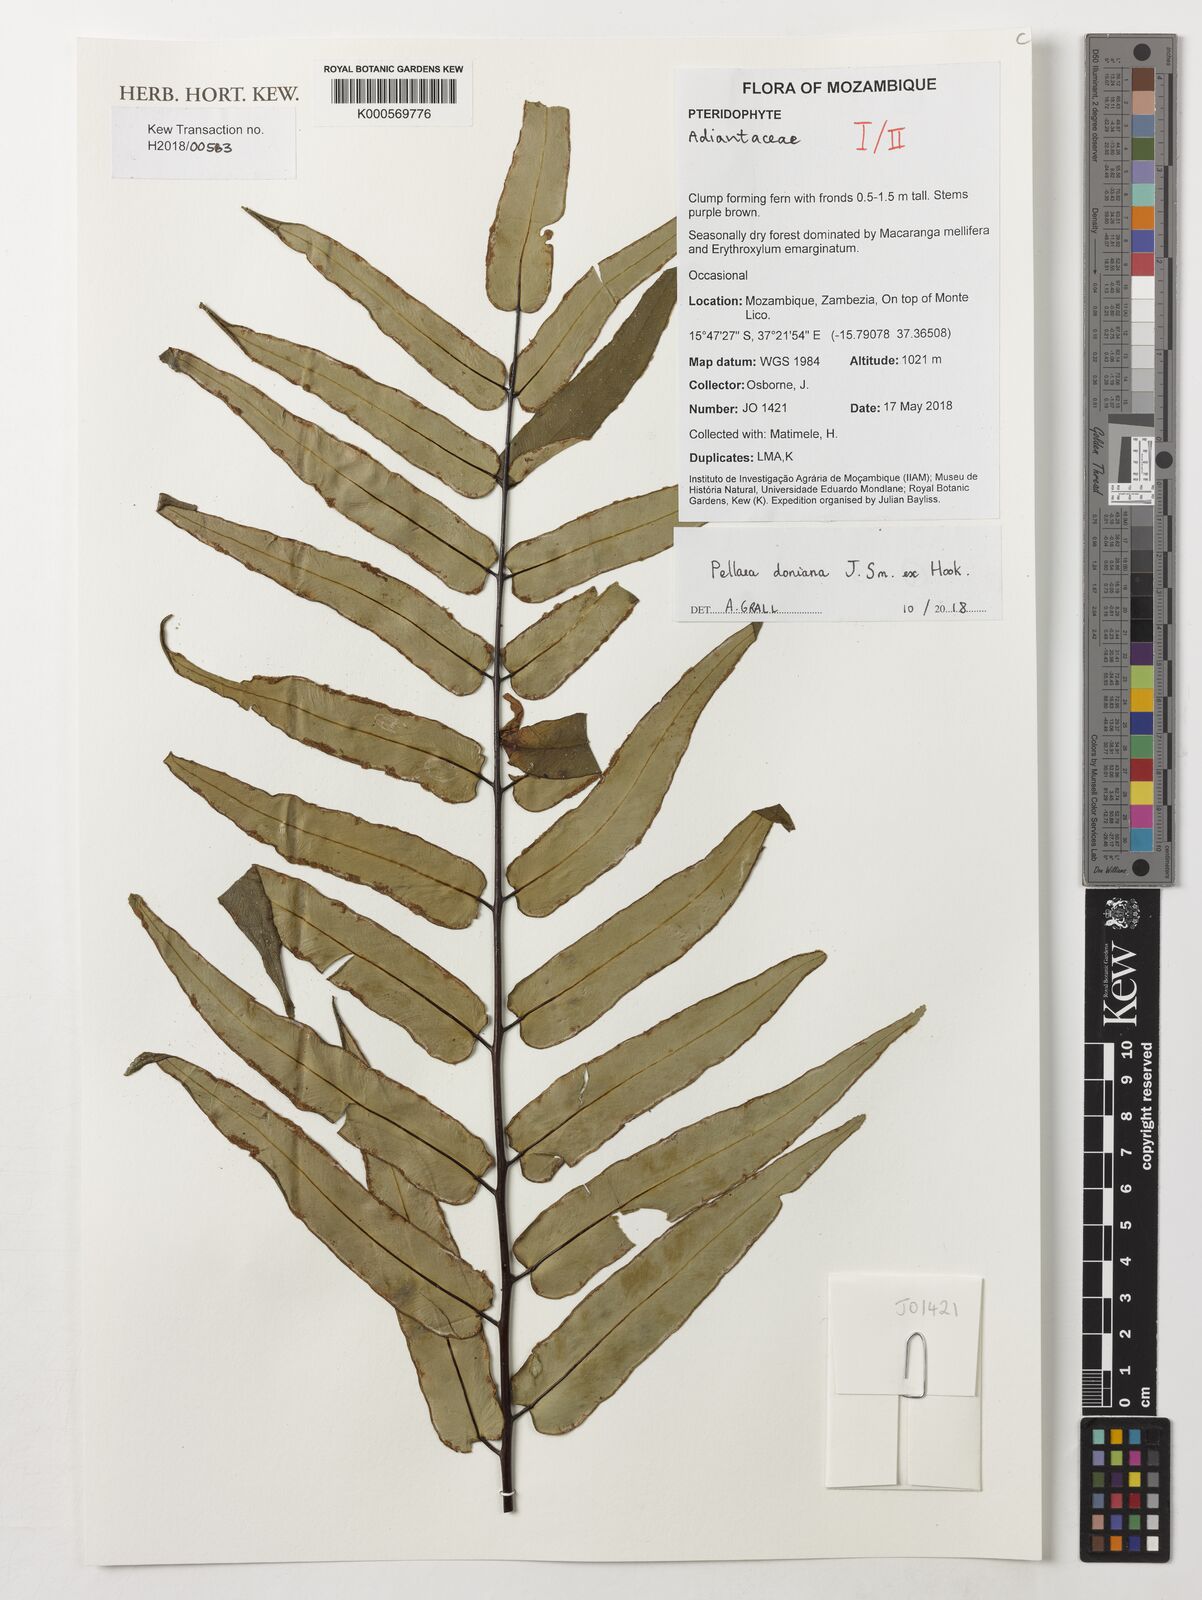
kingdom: Plantae
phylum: Tracheophyta
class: Polypodiopsida
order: Polypodiales
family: Pteridaceae
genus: Pellaea
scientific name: Pellaea doniana
